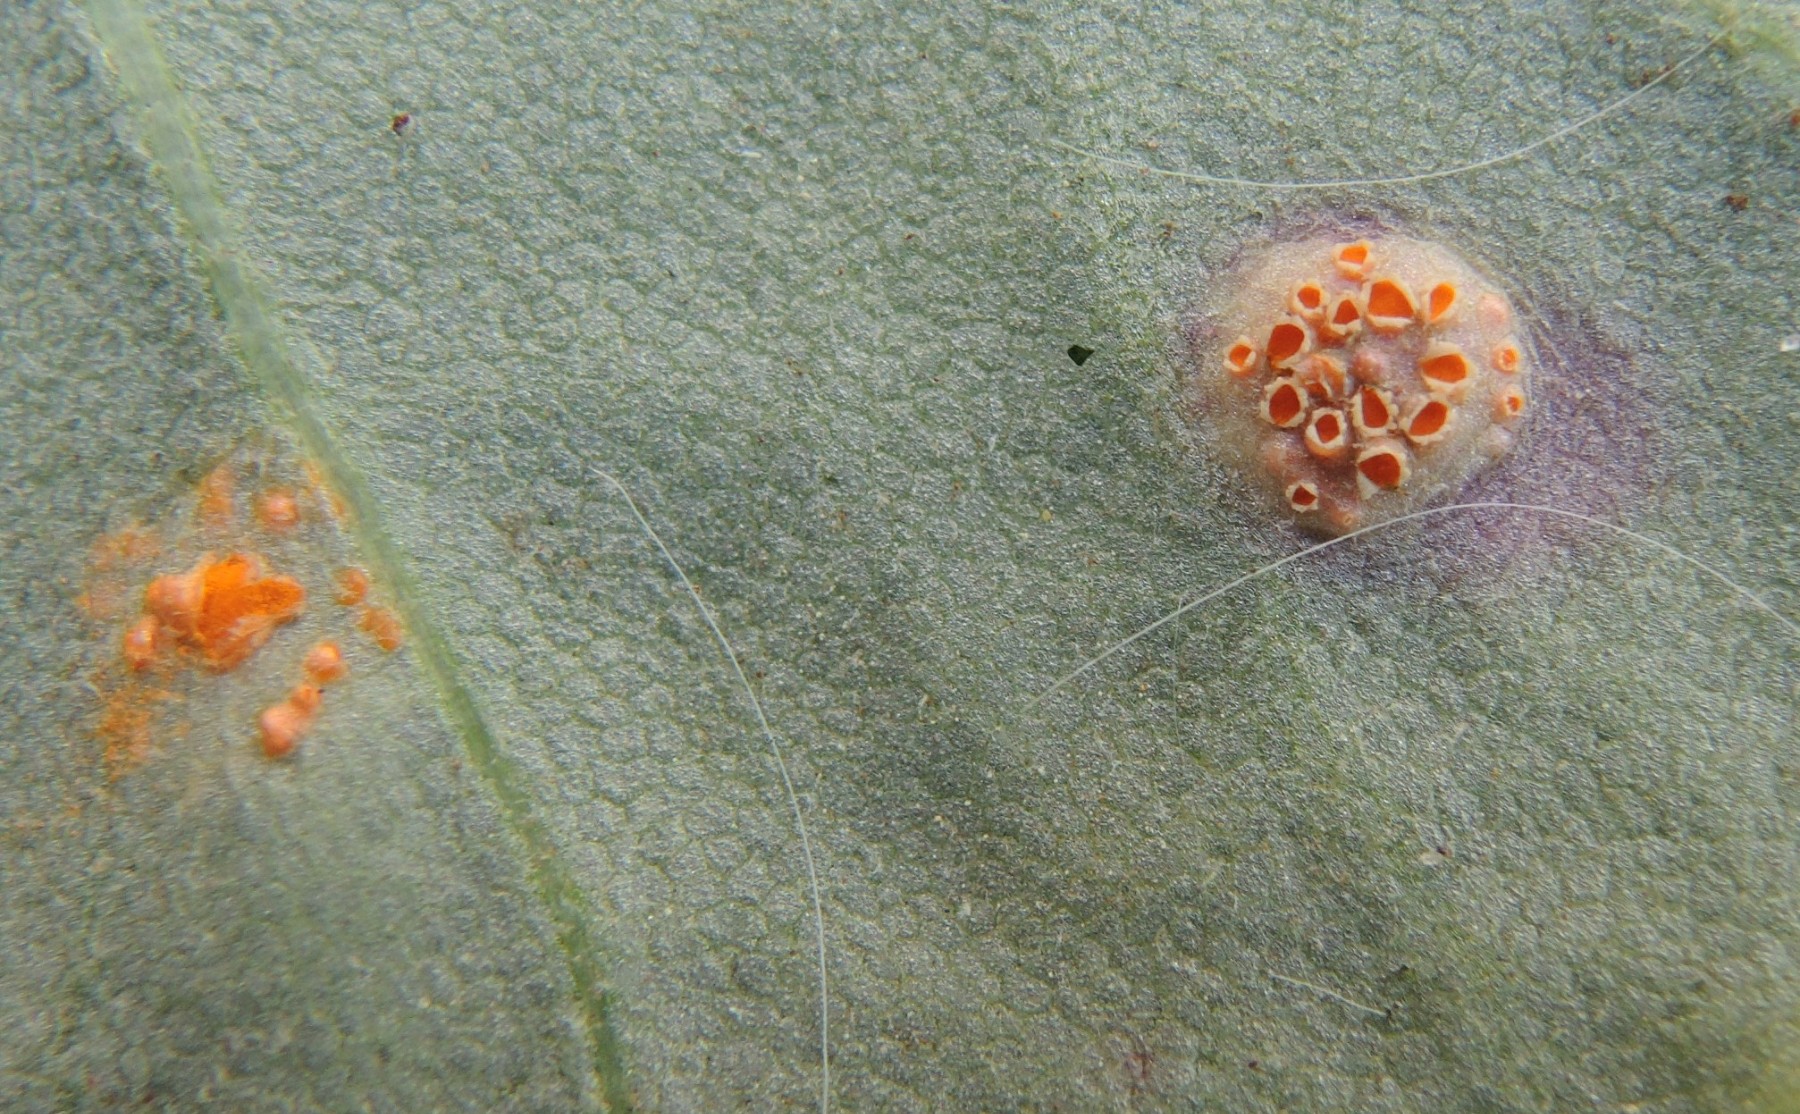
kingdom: Fungi
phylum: Basidiomycota
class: Pucciniomycetes
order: Pucciniales
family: Pucciniaceae
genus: Puccinia
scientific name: Puccinia poarum
